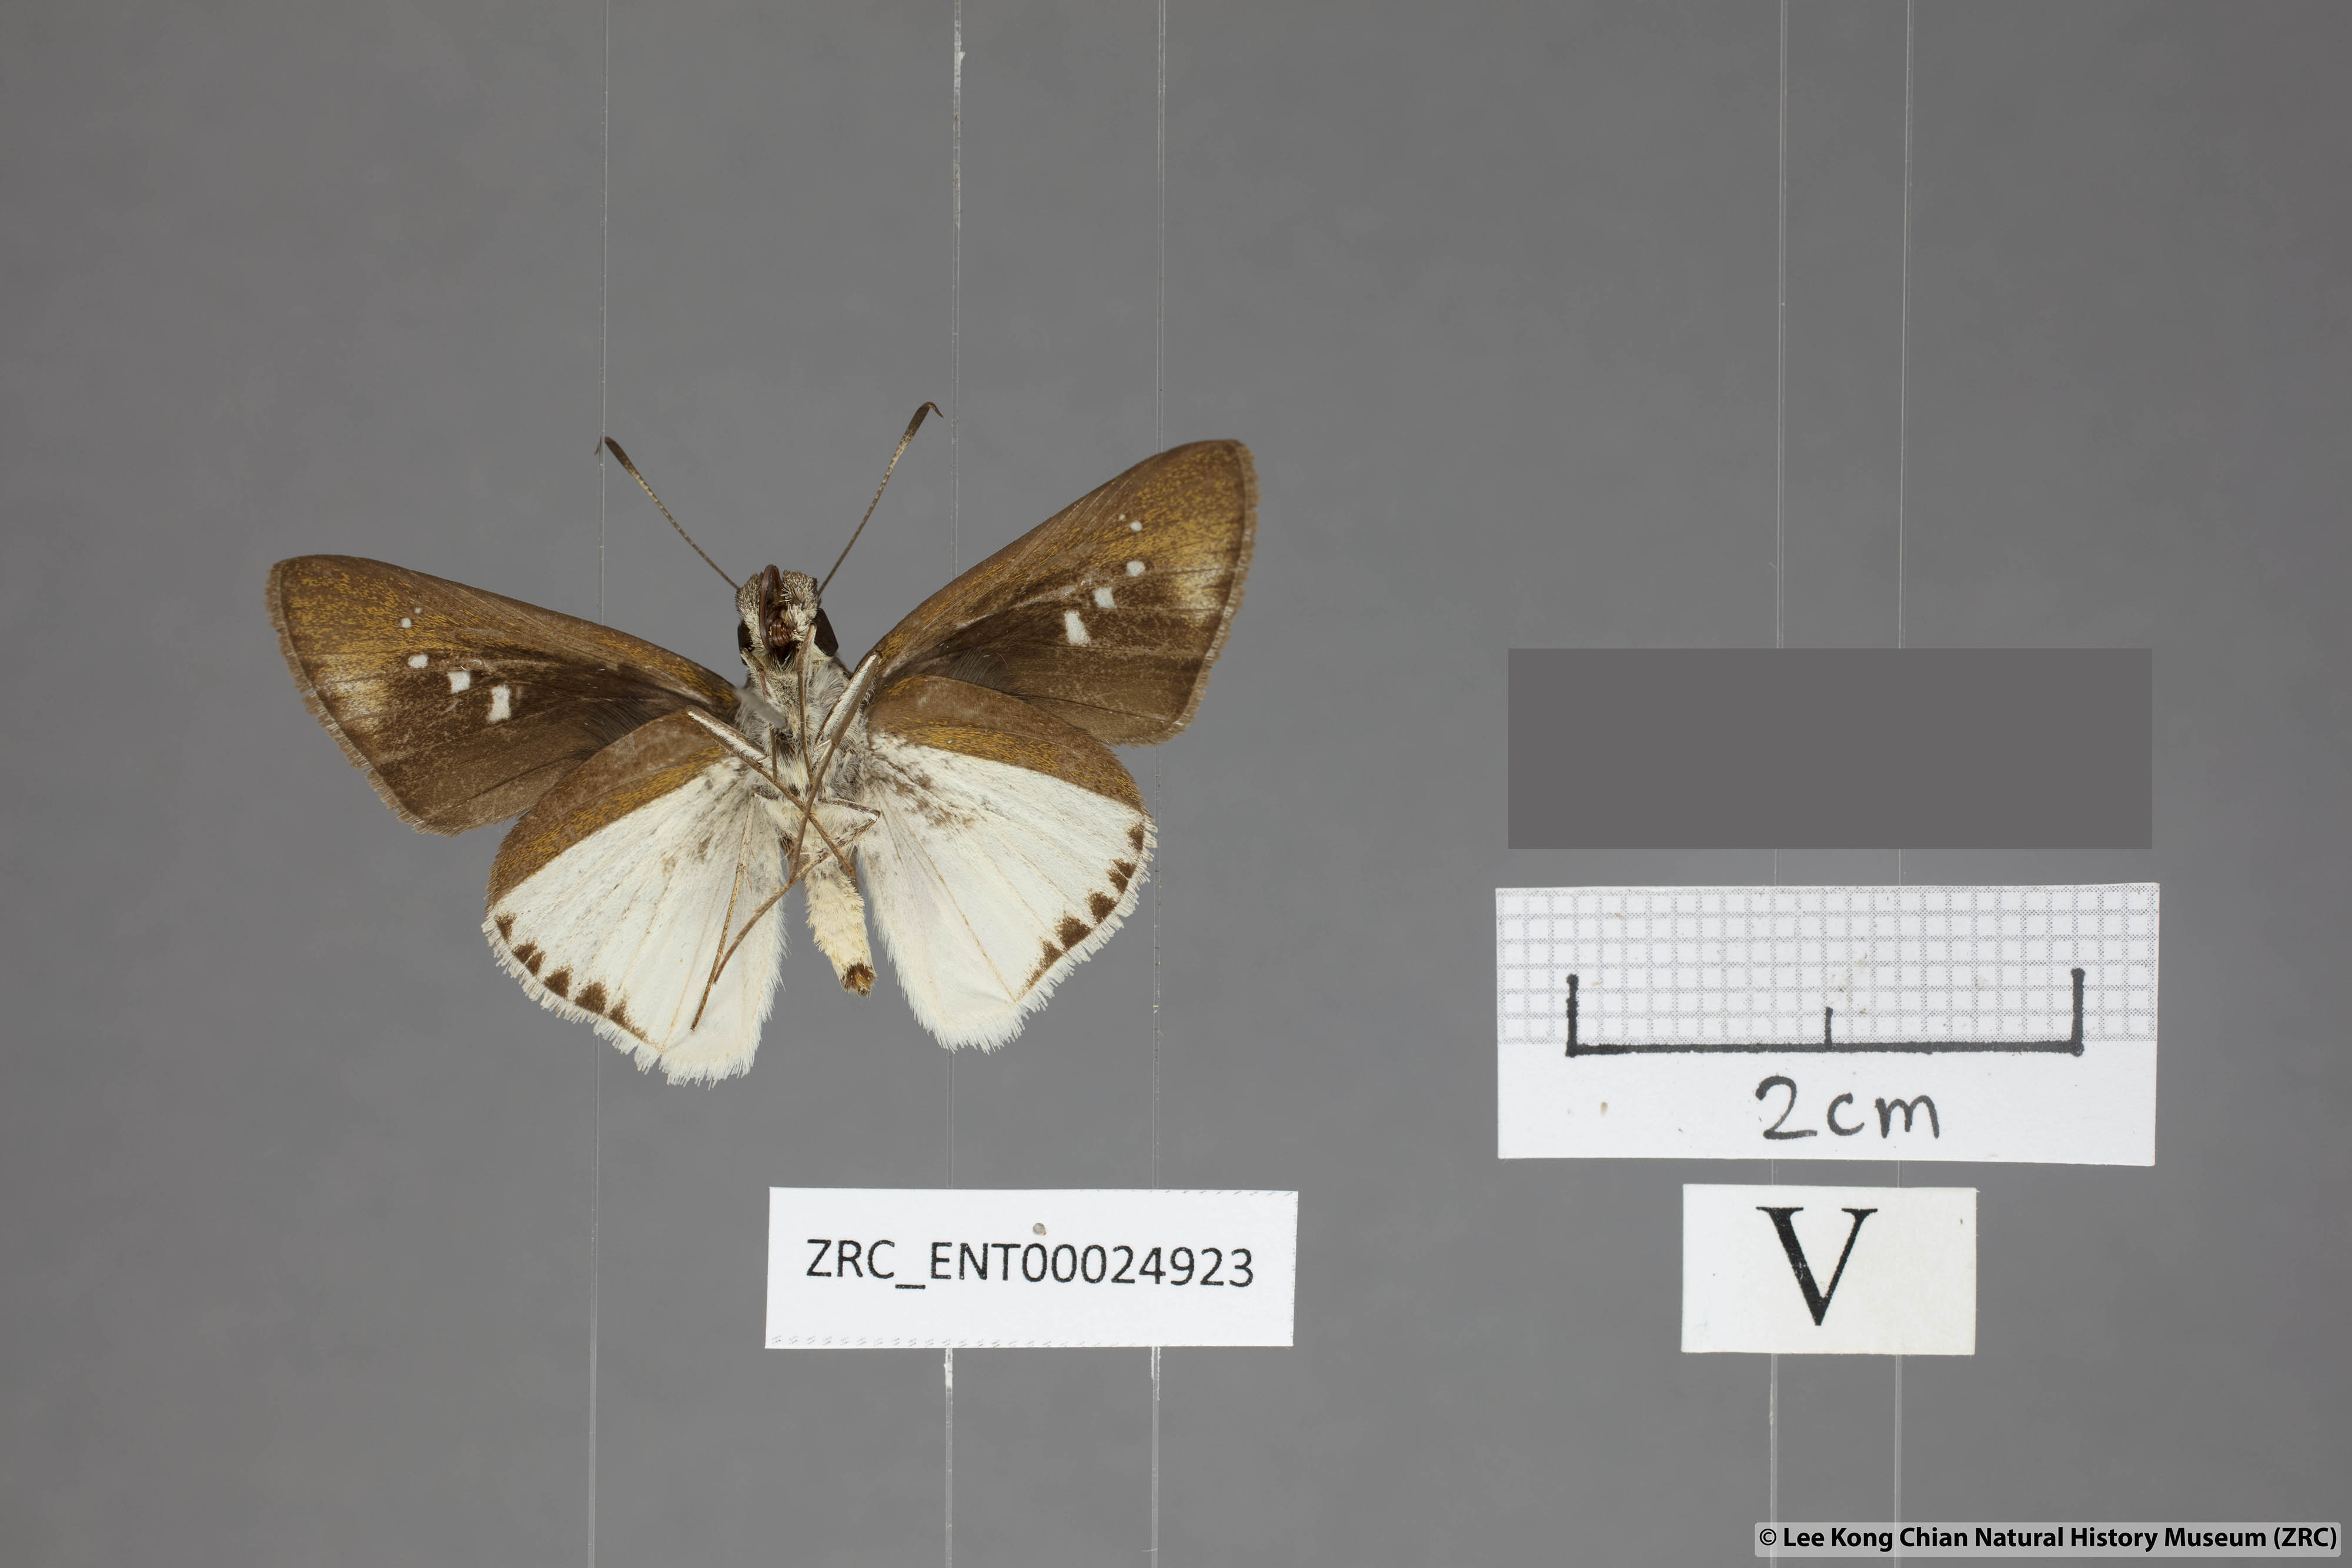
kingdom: Animalia
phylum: Arthropoda
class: Insecta
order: Lepidoptera
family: Hesperiidae
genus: Iton
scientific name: Iton semamora
